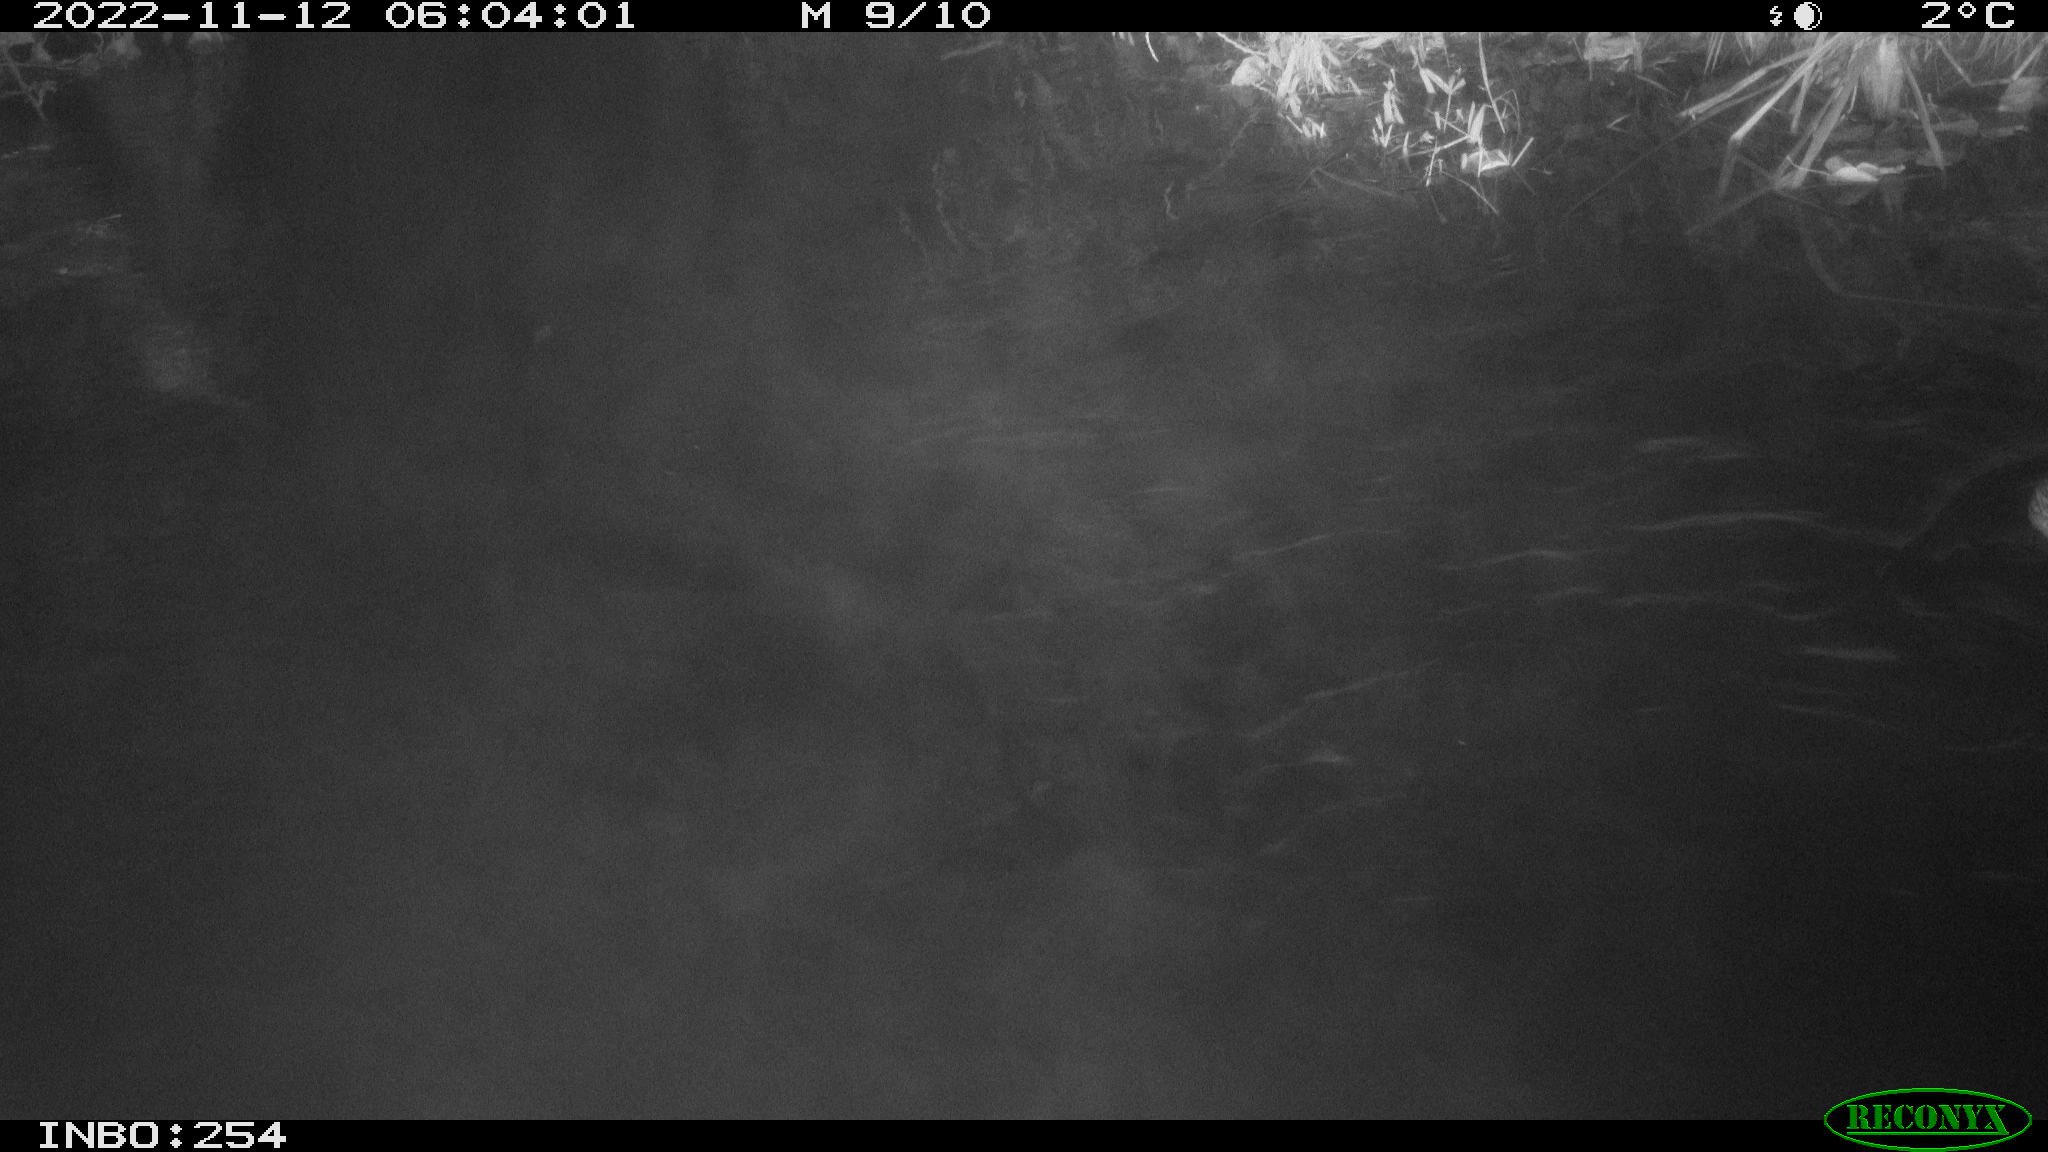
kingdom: Animalia
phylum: Chordata
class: Aves
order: Anseriformes
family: Anatidae
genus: Anas
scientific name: Anas
